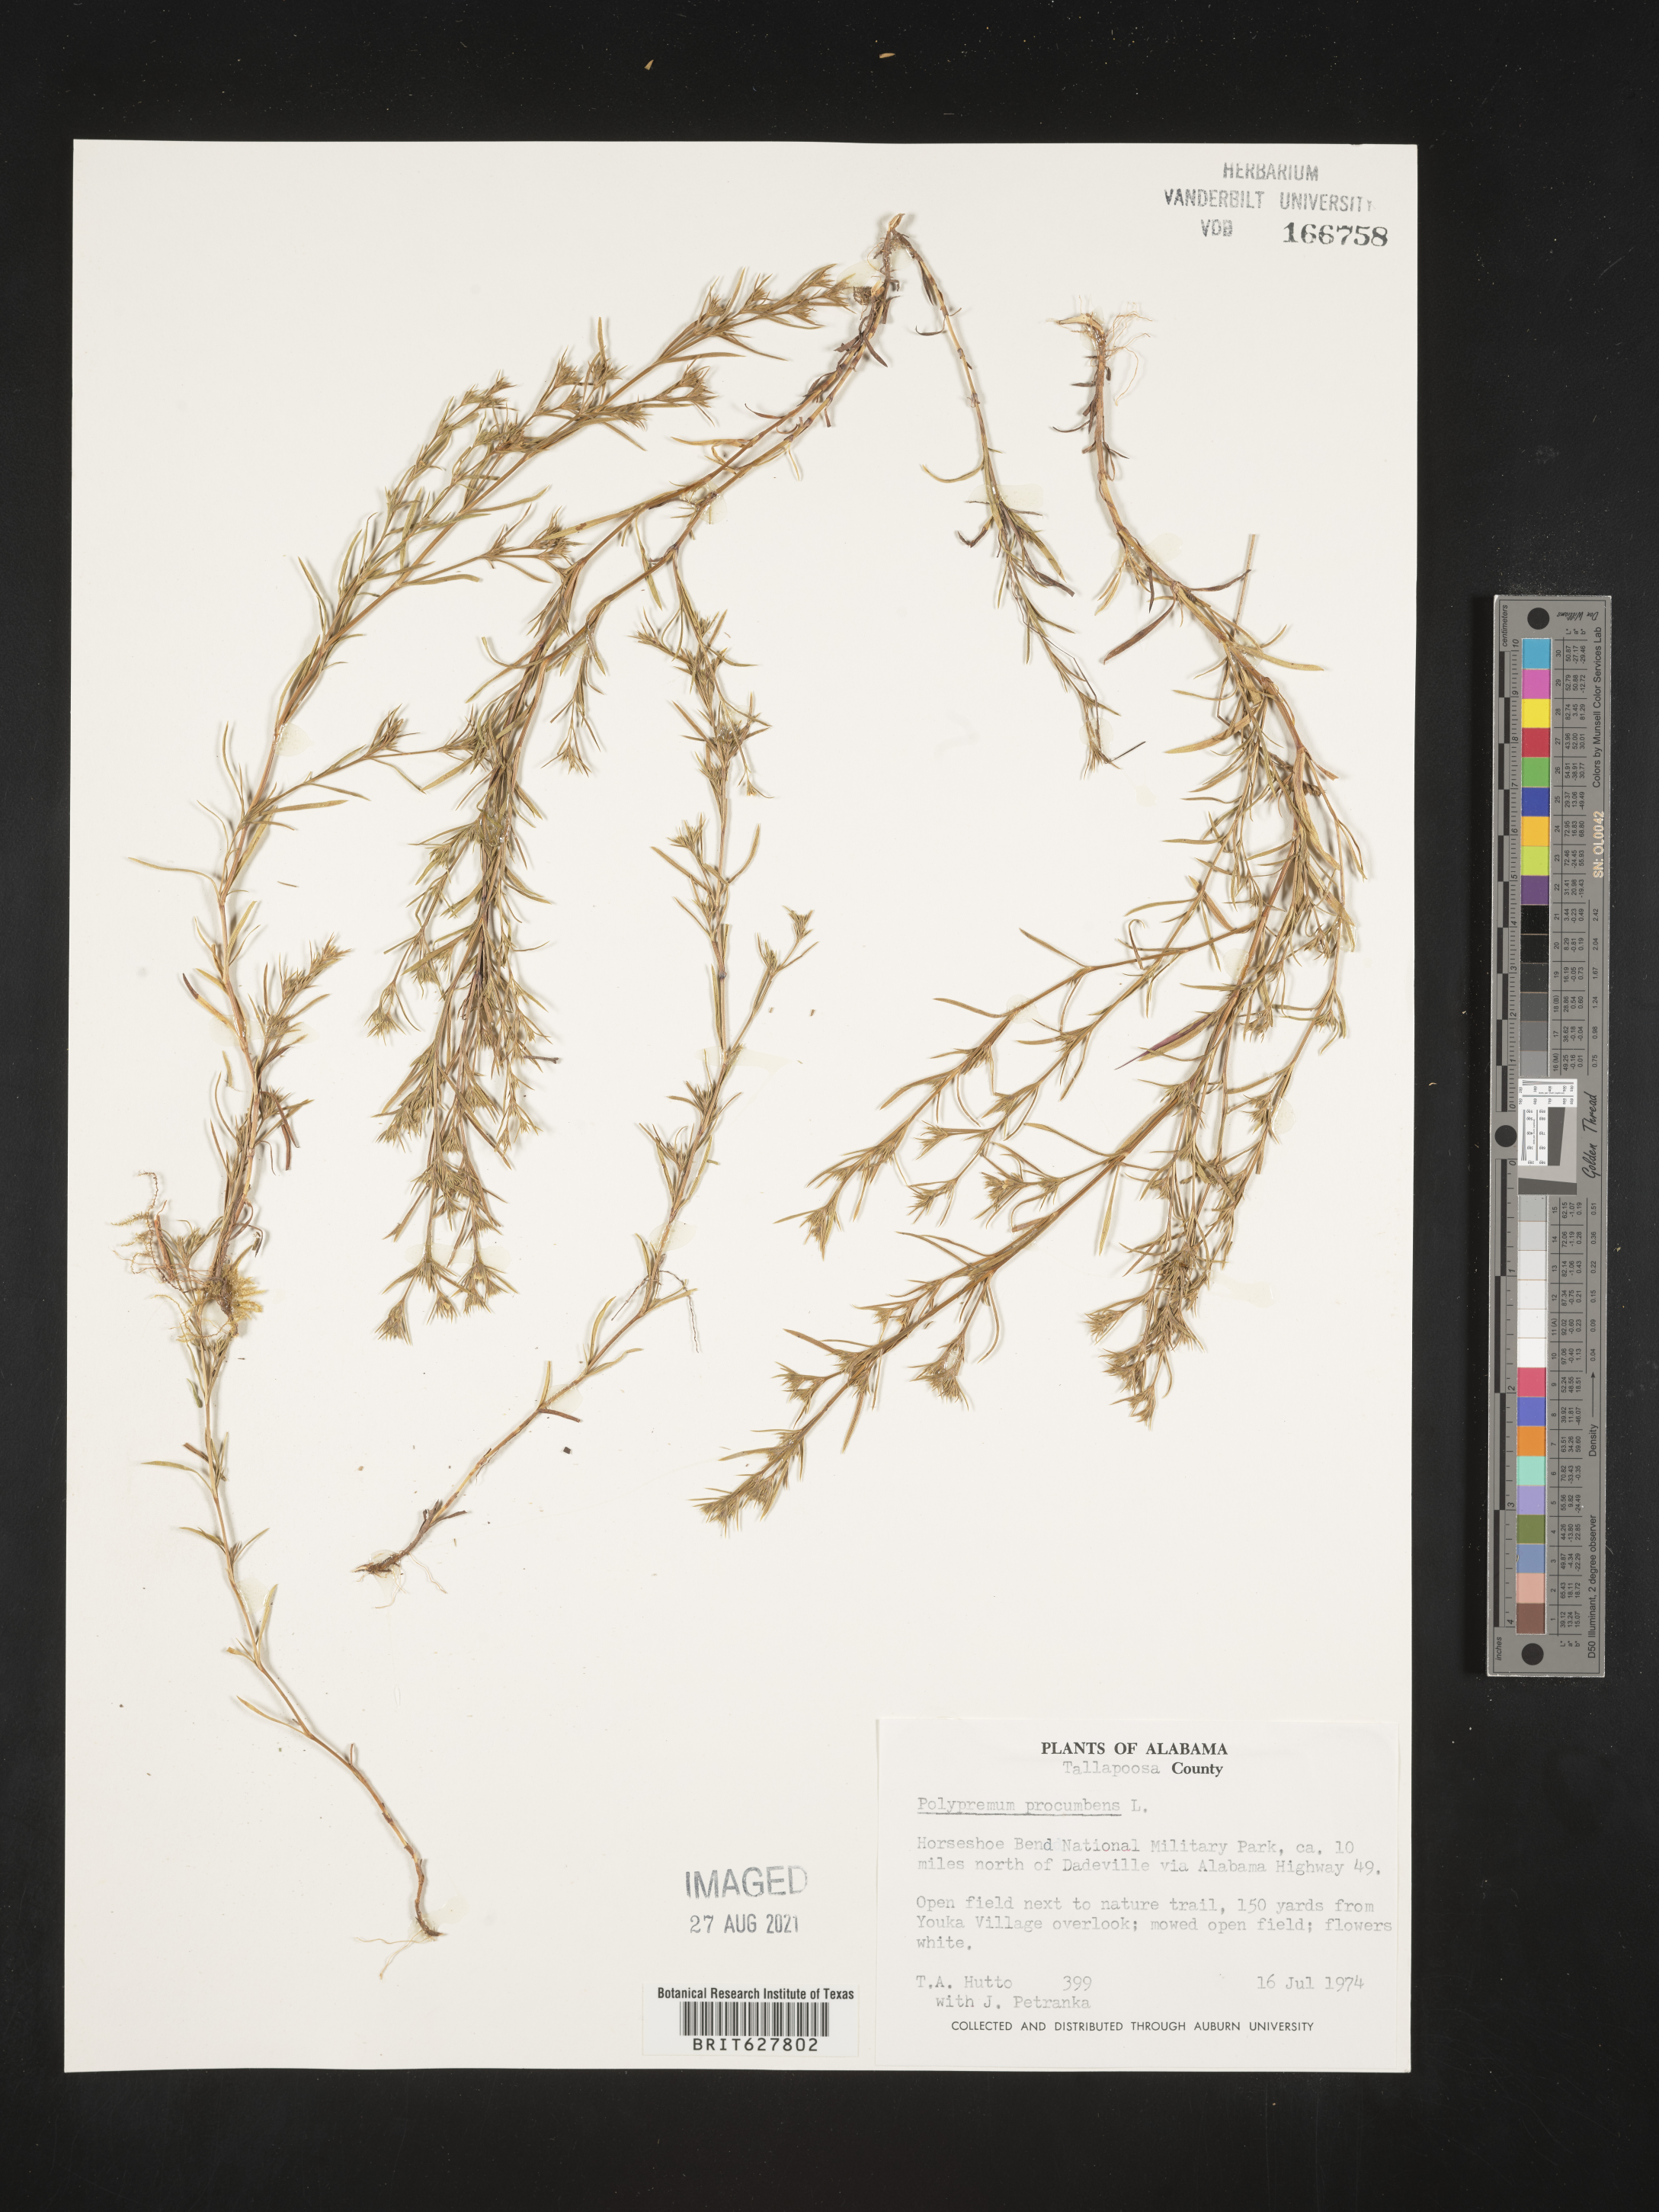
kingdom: Plantae
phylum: Tracheophyta
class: Magnoliopsida
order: Lamiales
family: Tetrachondraceae
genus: Polypremum
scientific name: Polypremum procumbens
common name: Juniper-leaf
